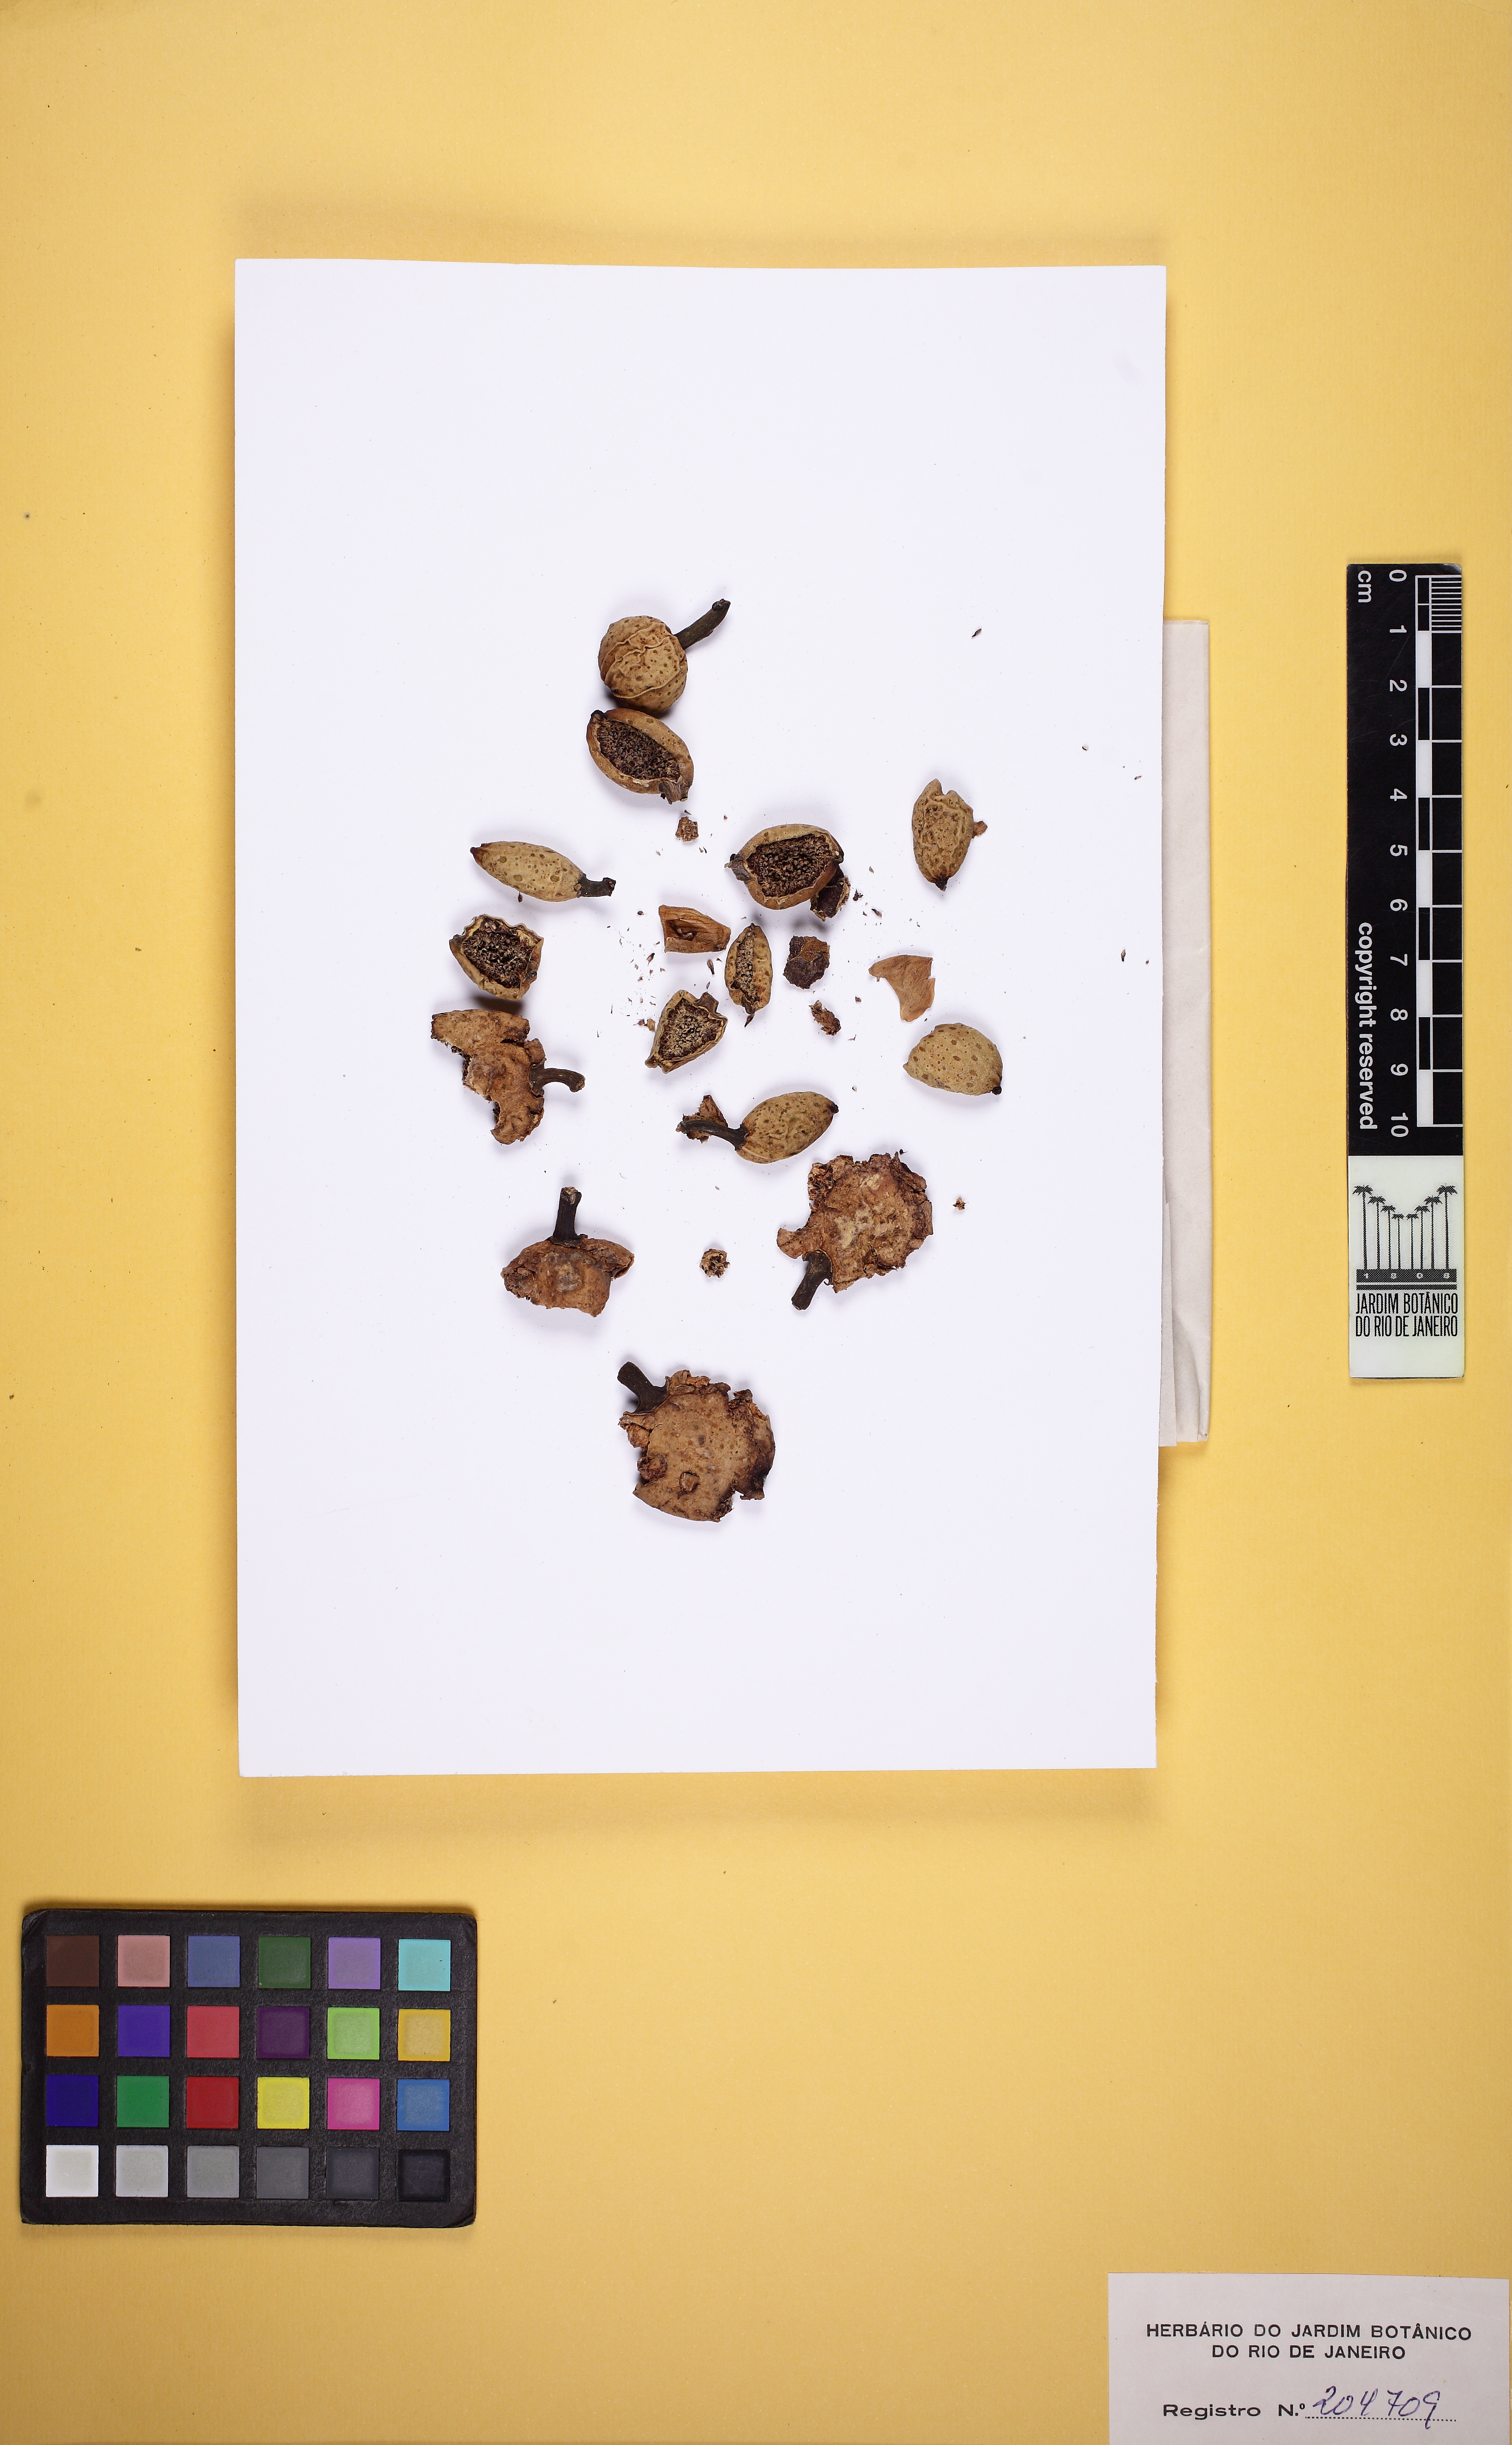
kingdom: Plantae
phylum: Tracheophyta
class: Magnoliopsida
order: Rosales
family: Moraceae
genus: Ficus
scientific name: Ficus macrophylla
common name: Moreton bay fig
